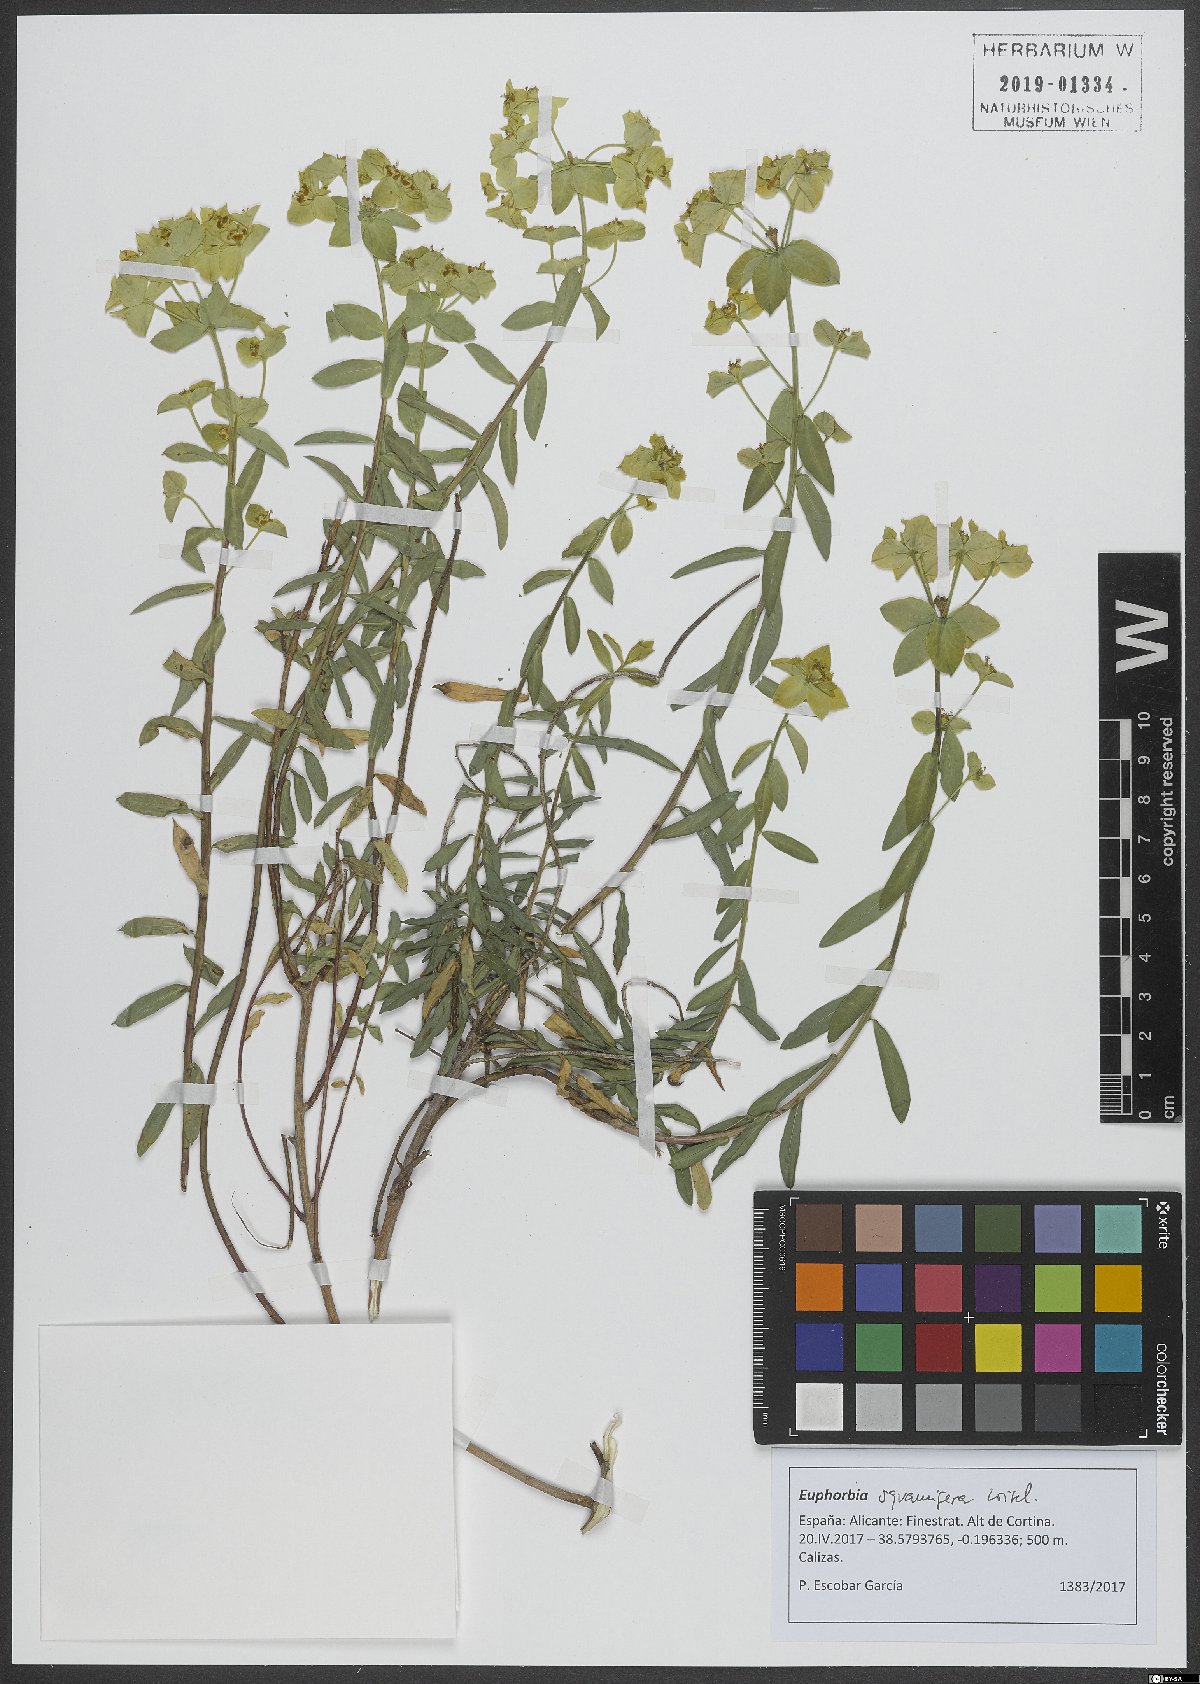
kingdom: Plantae
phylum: Tracheophyta
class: Magnoliopsida
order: Malpighiales
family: Euphorbiaceae
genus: Euphorbia
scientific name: Euphorbia squamigera
